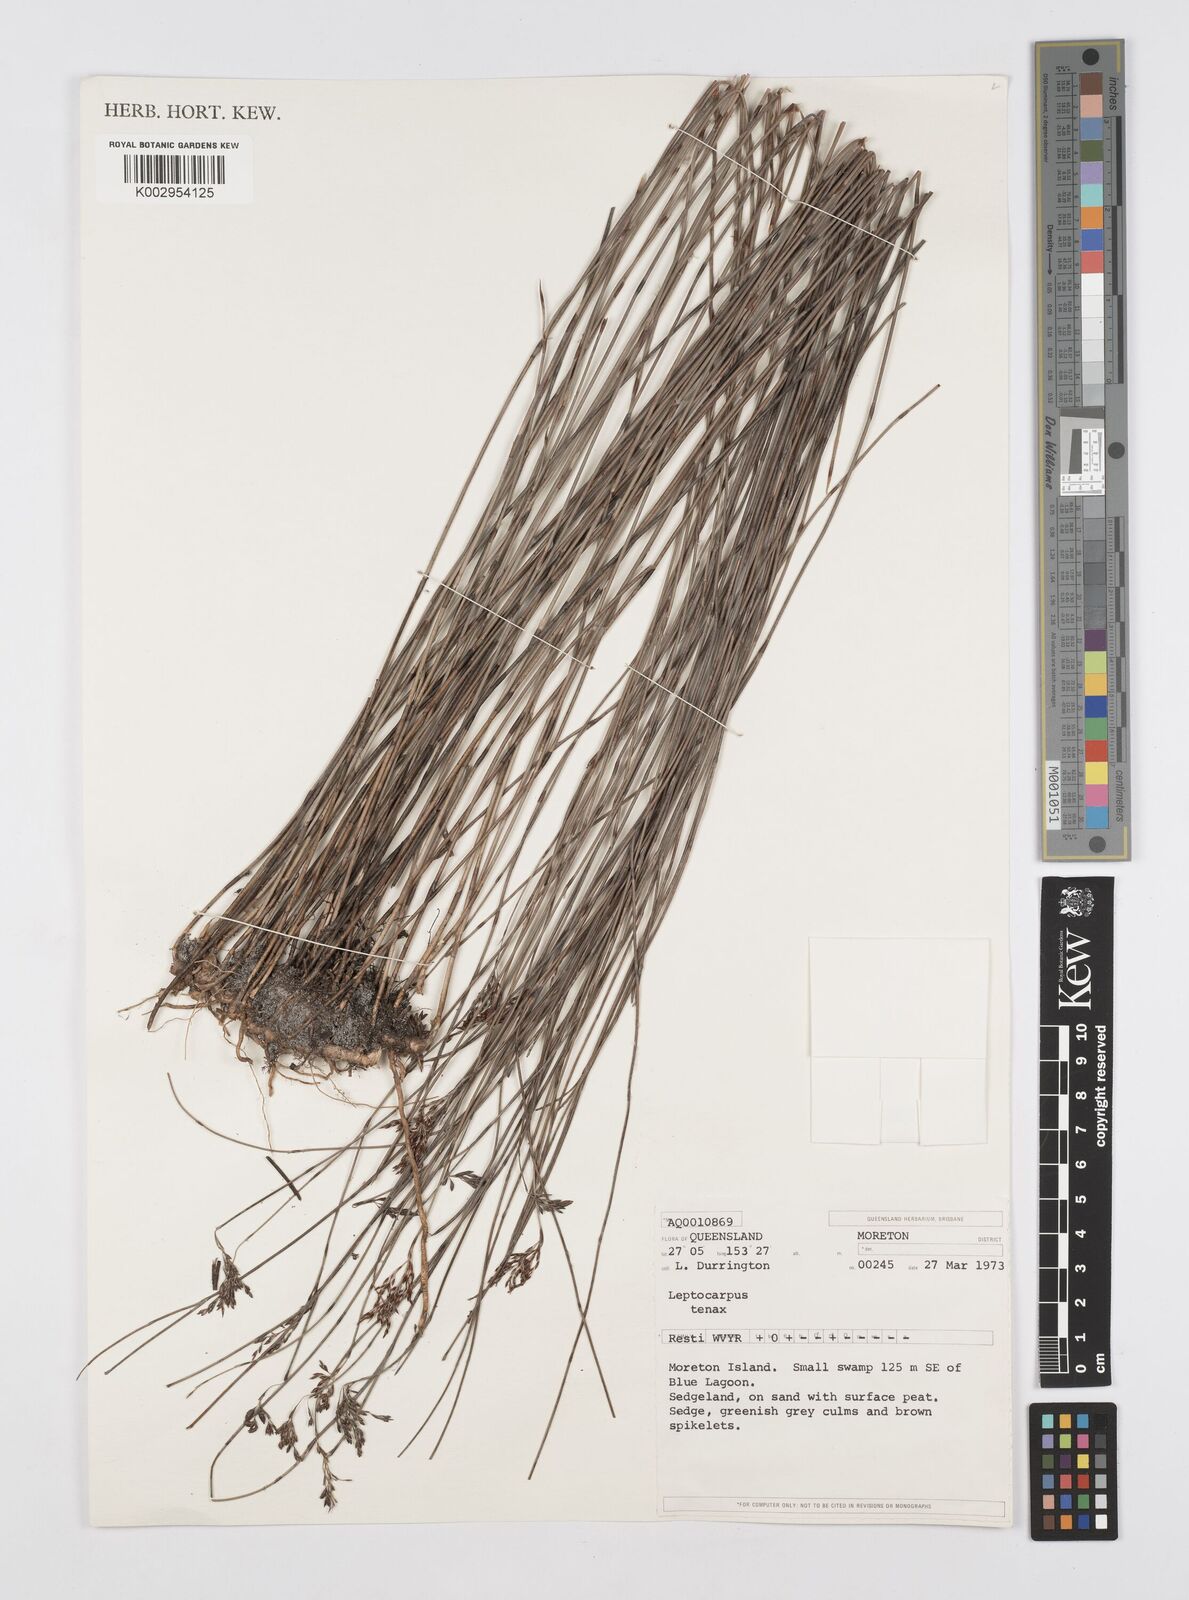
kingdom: Plantae
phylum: Tracheophyta
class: Liliopsida
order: Poales
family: Restionaceae
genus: Leptocarpus
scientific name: Leptocarpus tenax
